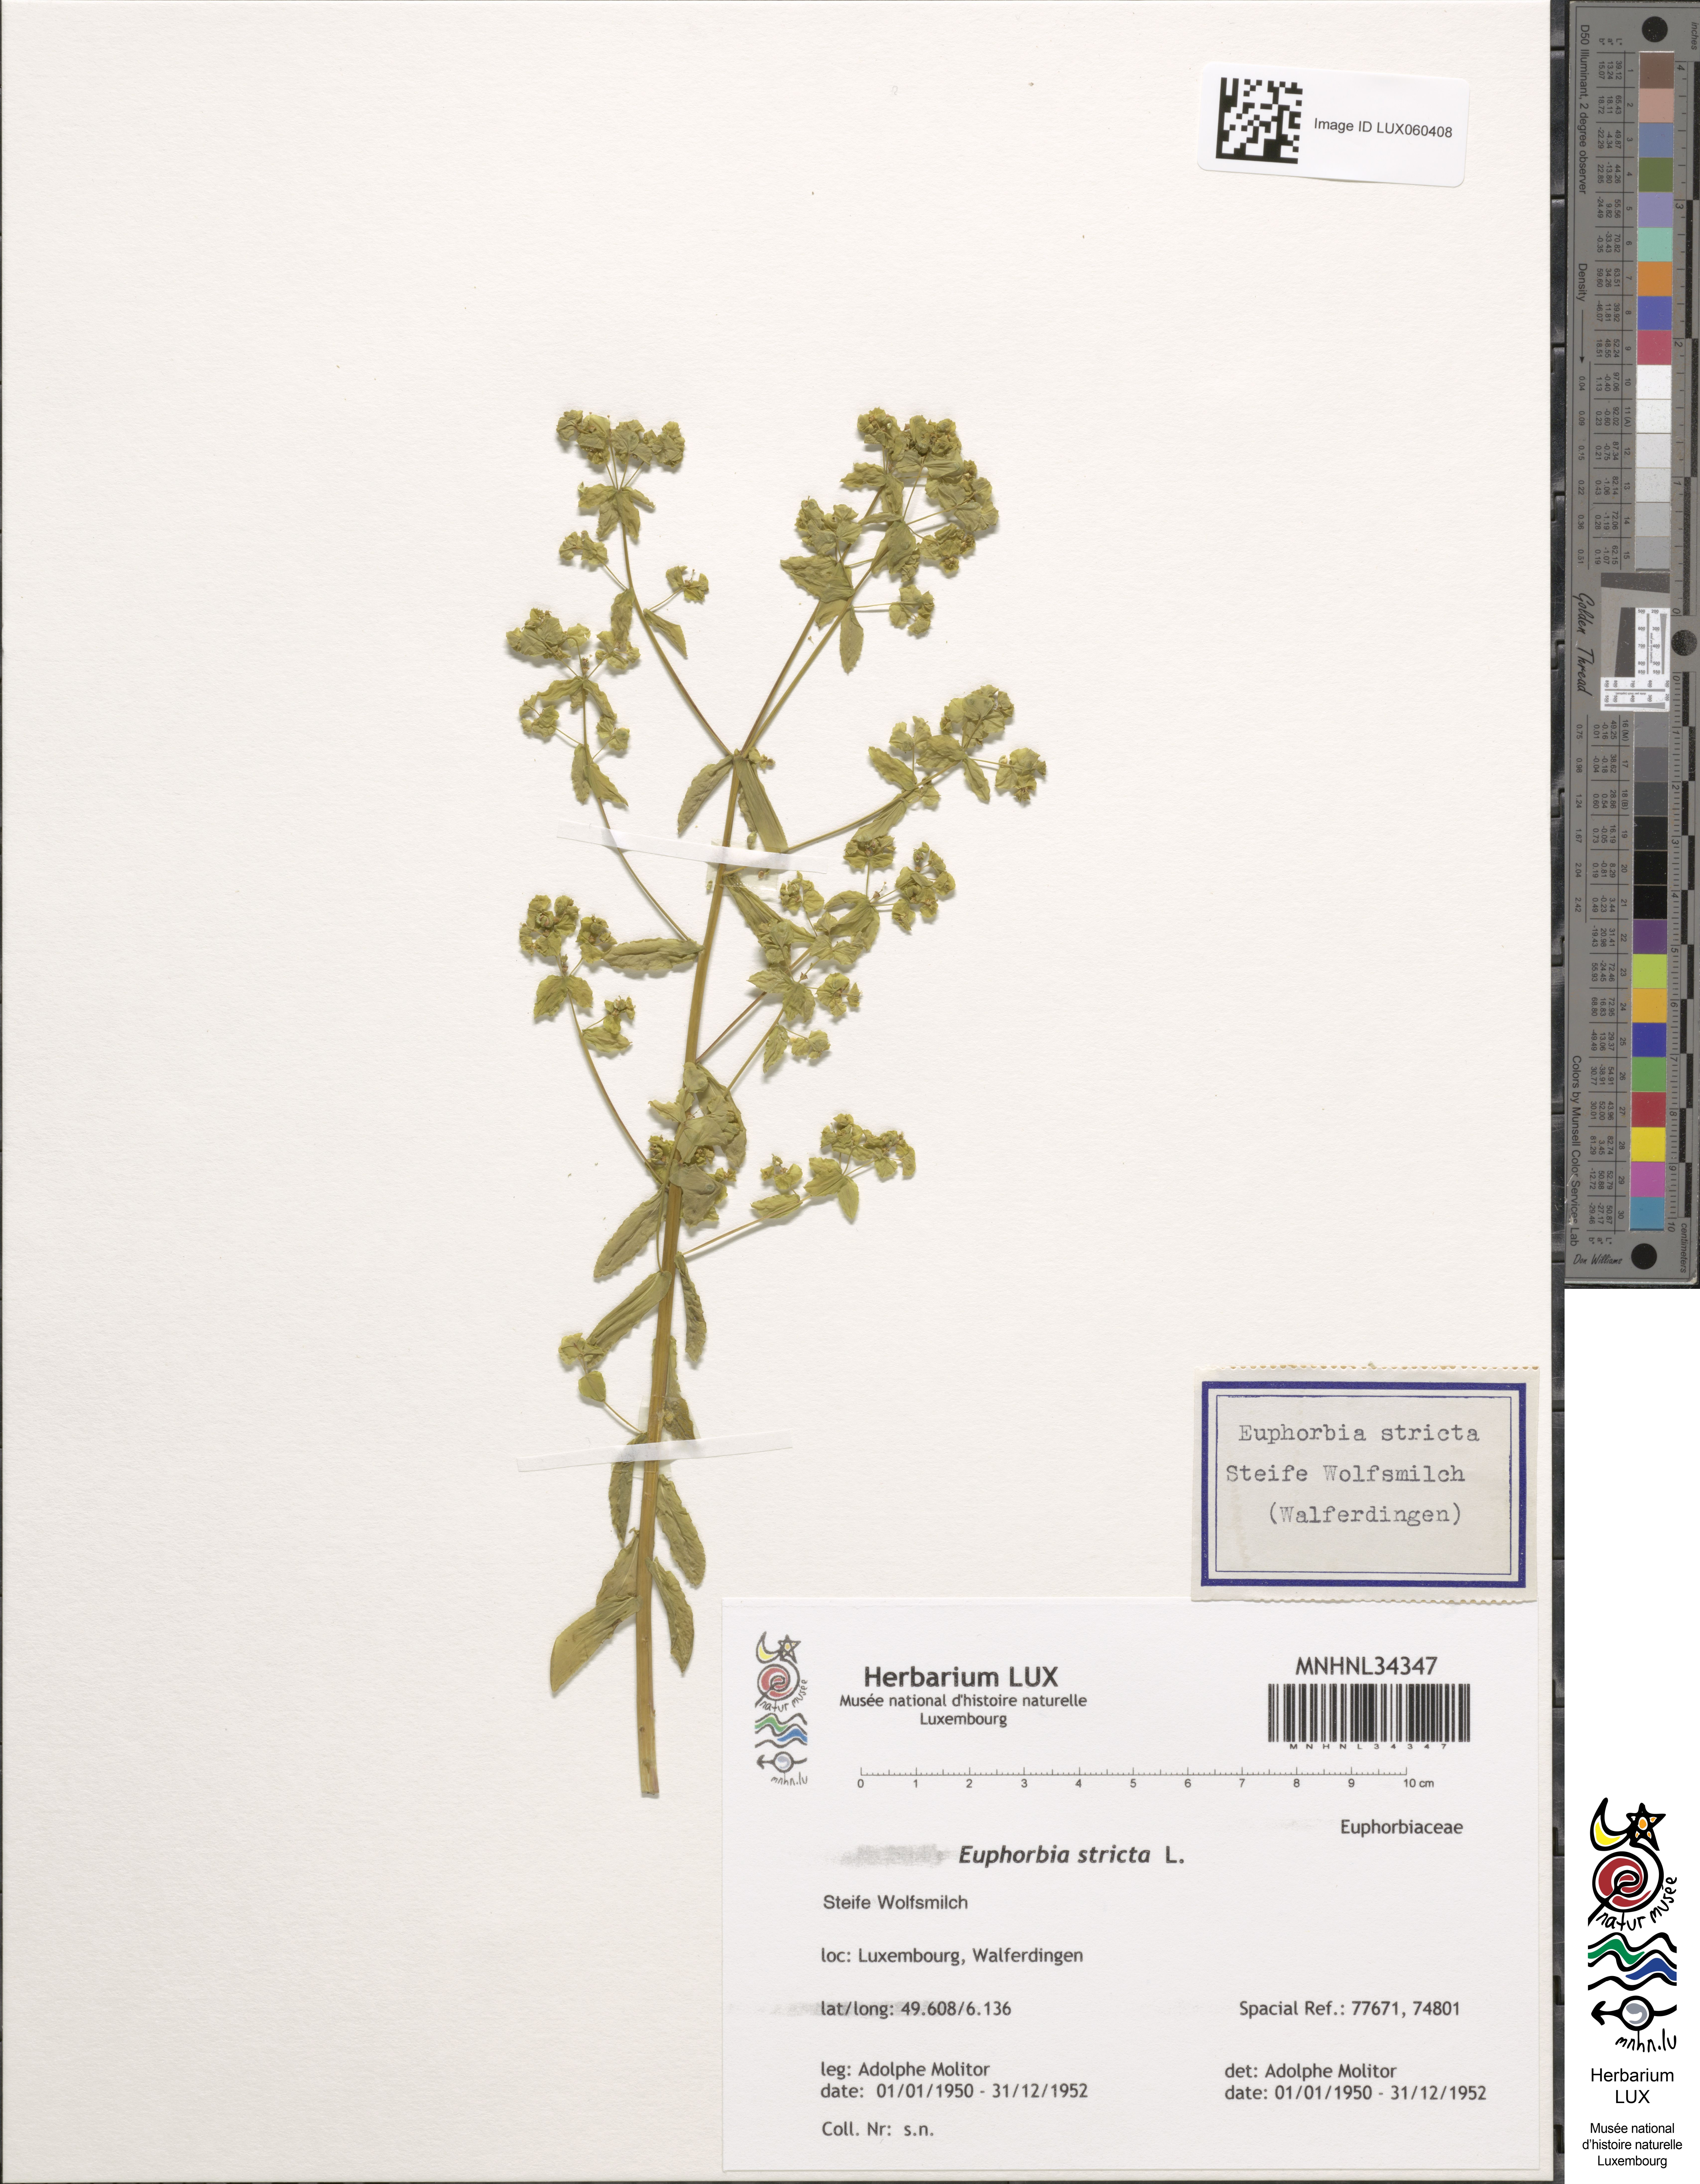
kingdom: Plantae
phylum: Tracheophyta
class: Magnoliopsida
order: Malpighiales
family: Euphorbiaceae
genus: Euphorbia
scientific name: Euphorbia stricta
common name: Upright spurge
